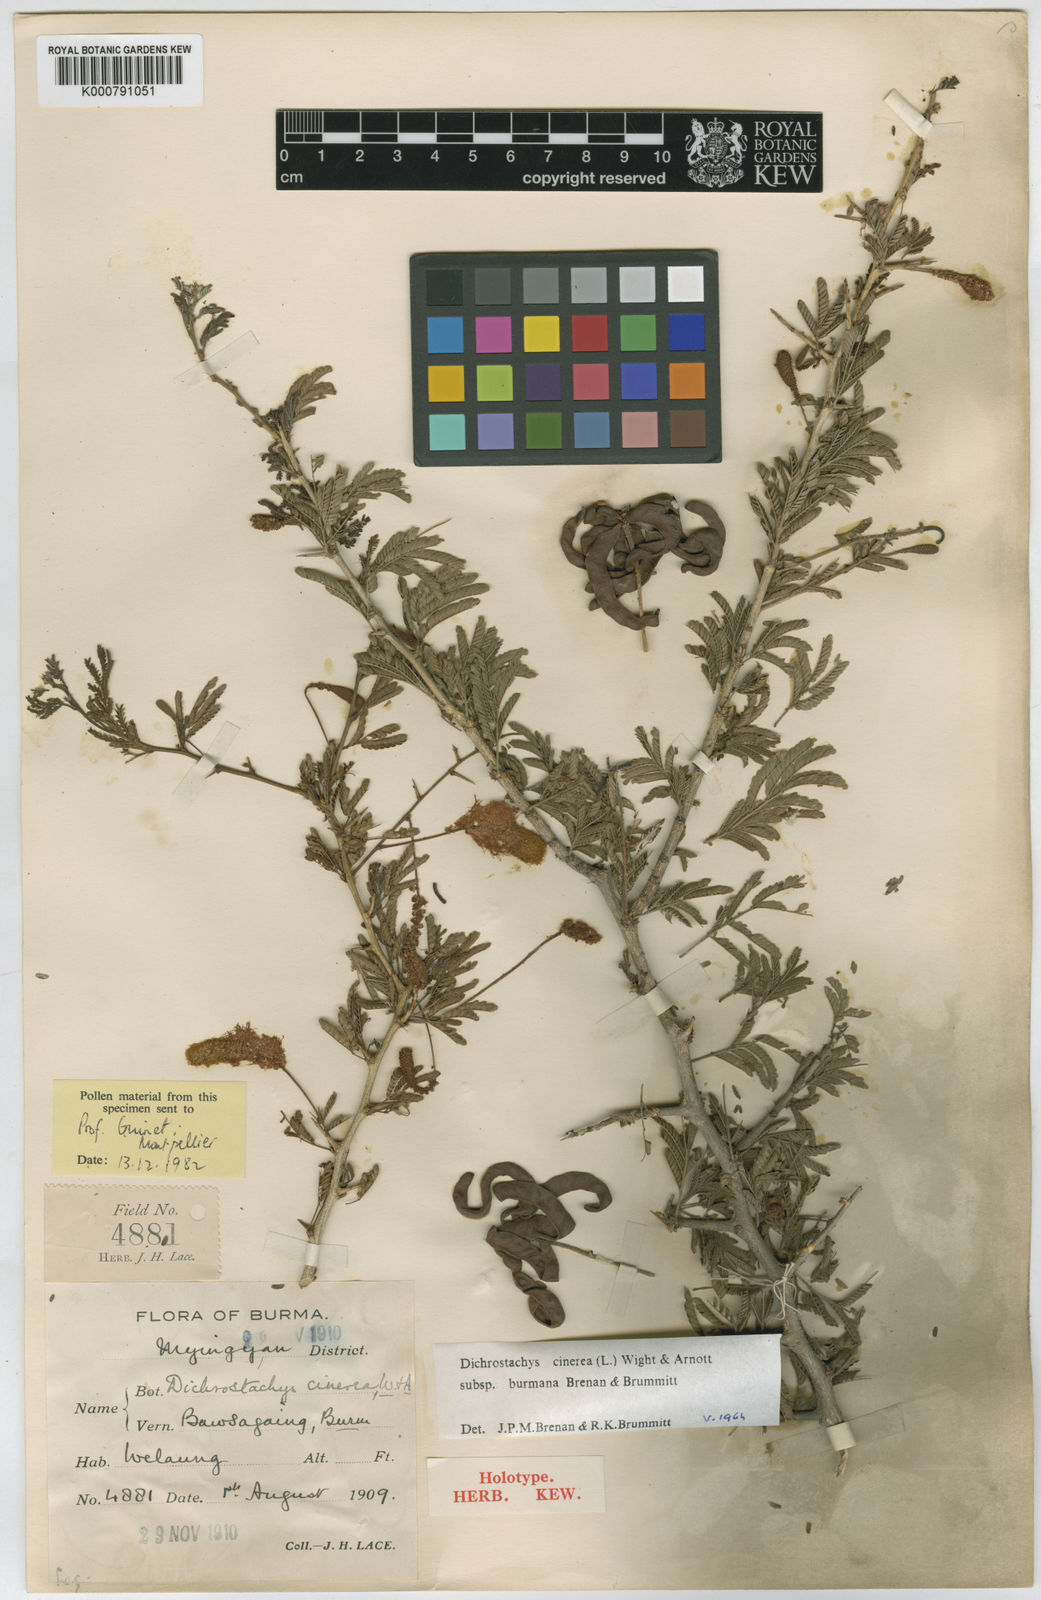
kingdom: Plantae
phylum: Tracheophyta
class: Magnoliopsida
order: Fabales
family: Fabaceae
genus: Dichrostachys
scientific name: Dichrostachys cinerea
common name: Sicklebush
